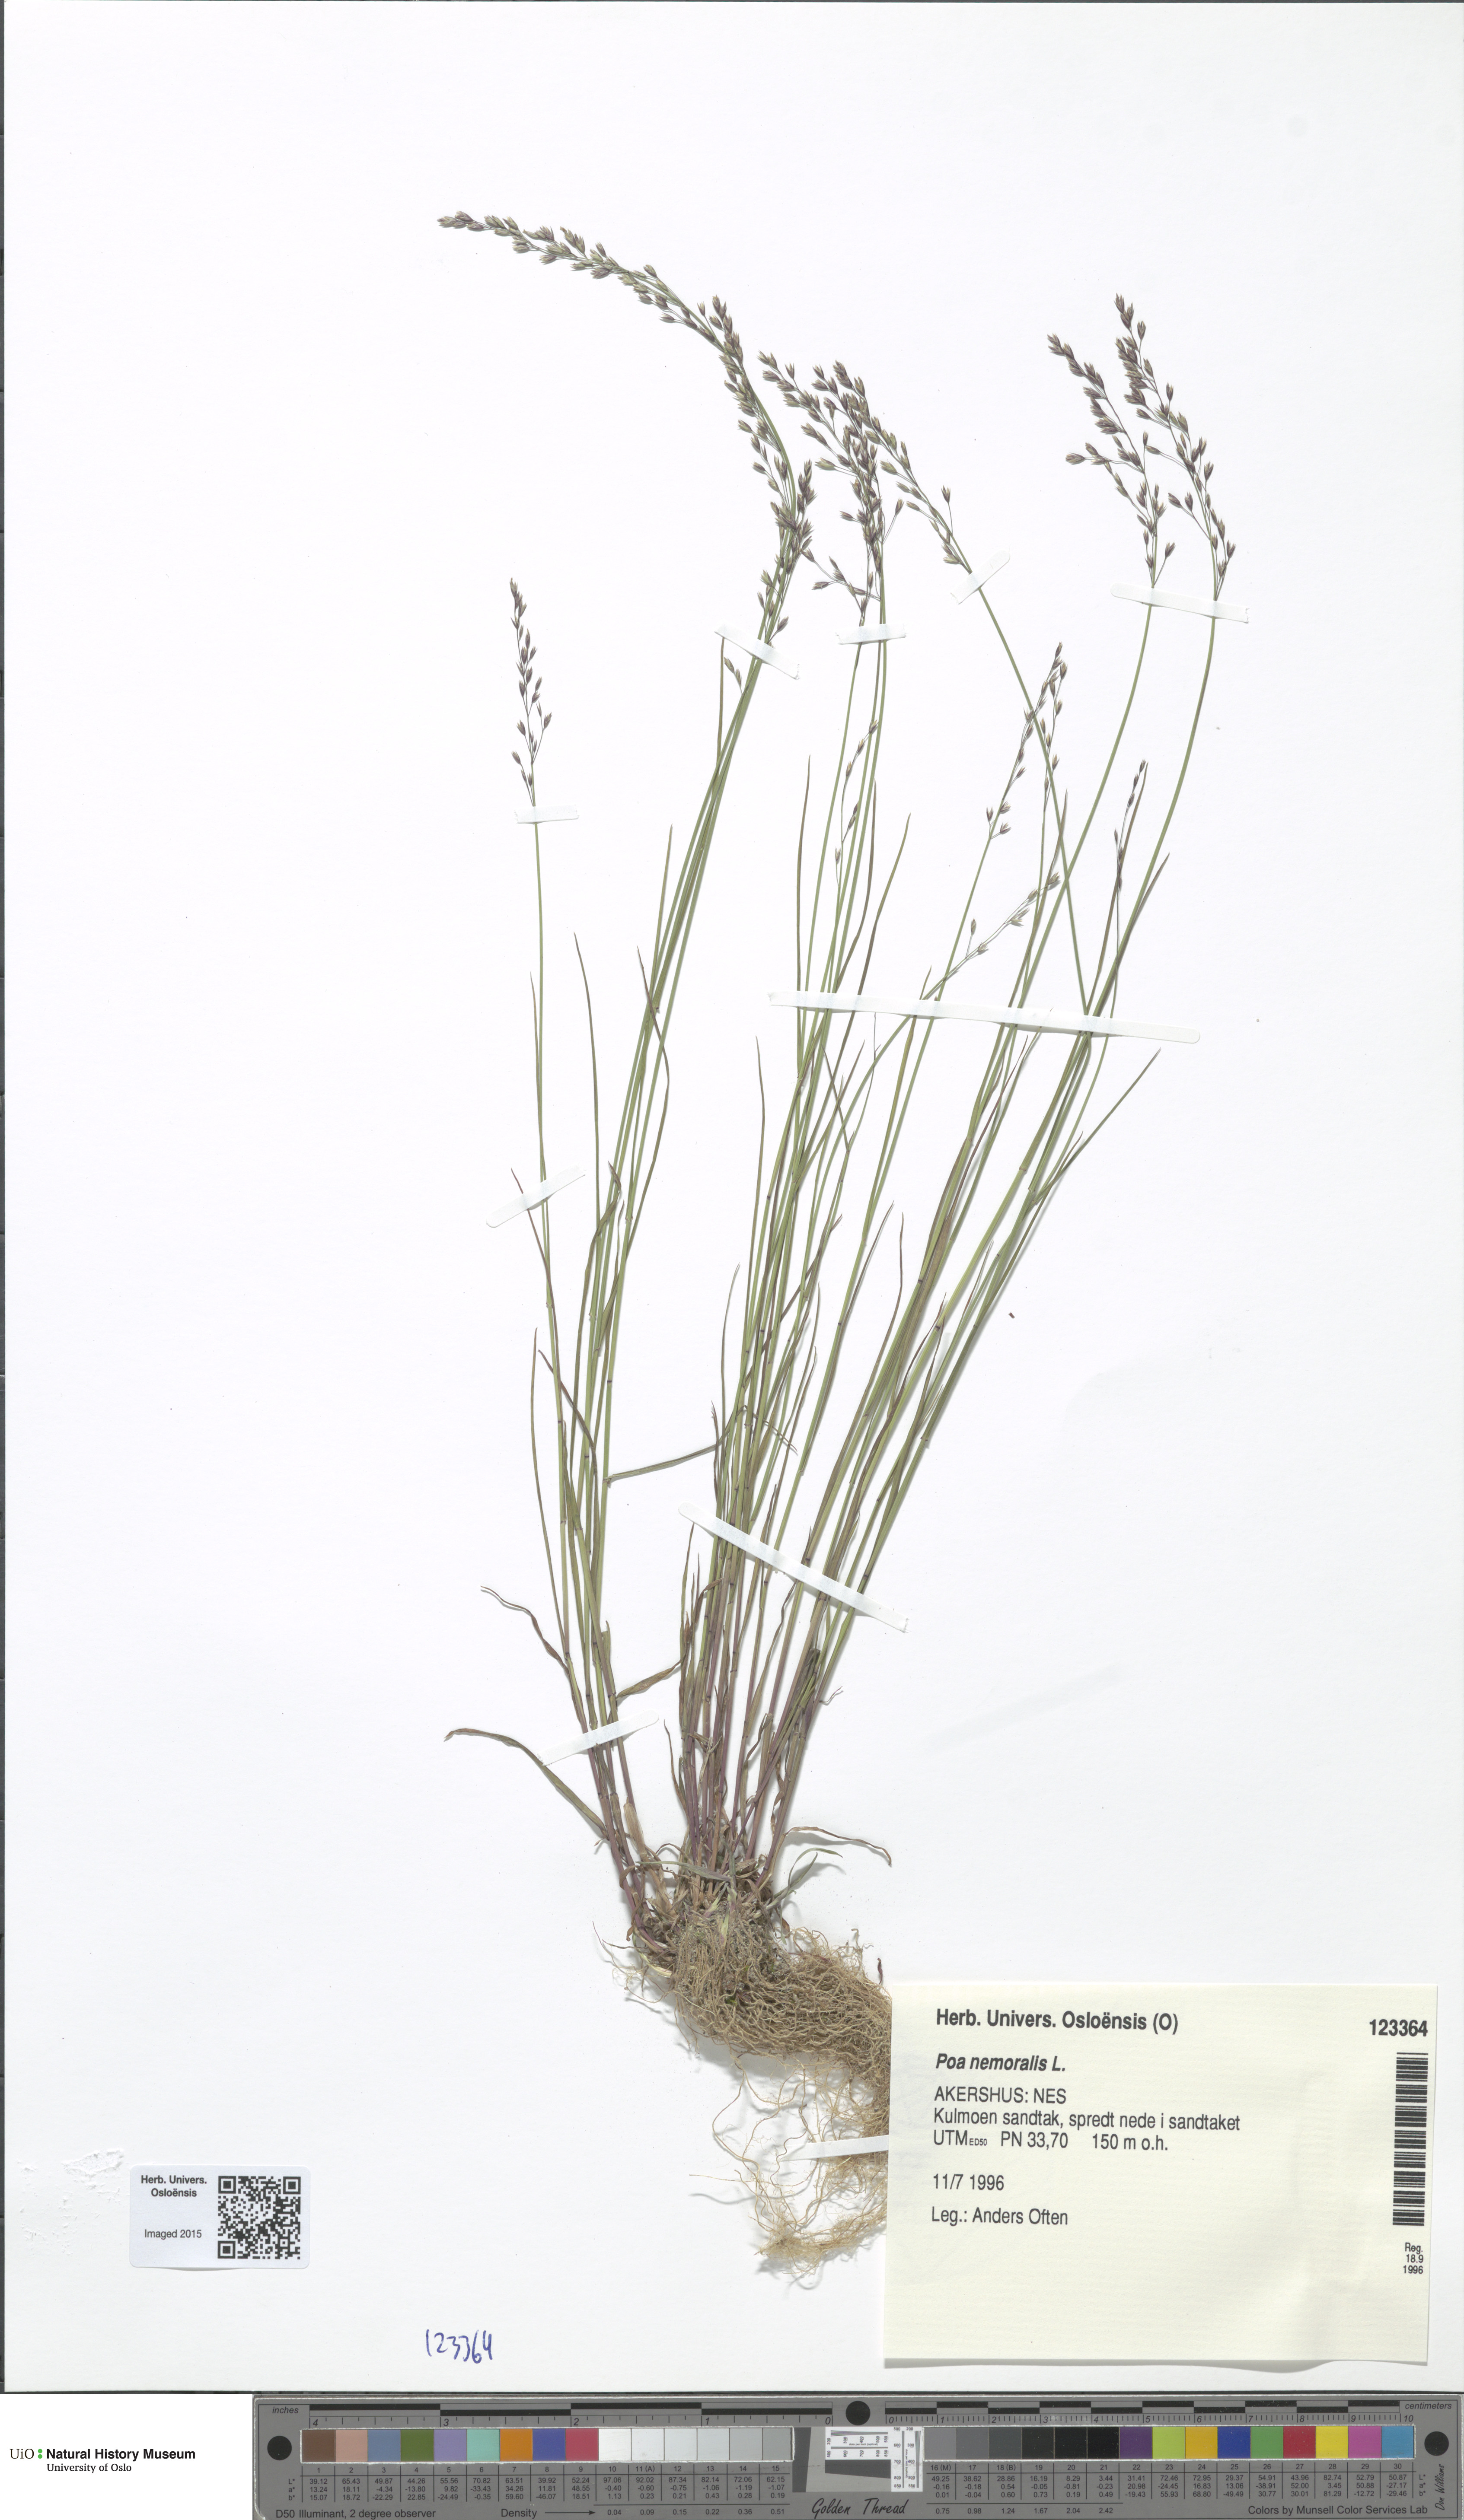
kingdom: Plantae
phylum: Tracheophyta
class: Liliopsida
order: Poales
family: Poaceae
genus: Poa
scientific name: Poa nemoralis
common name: Wood bluegrass
